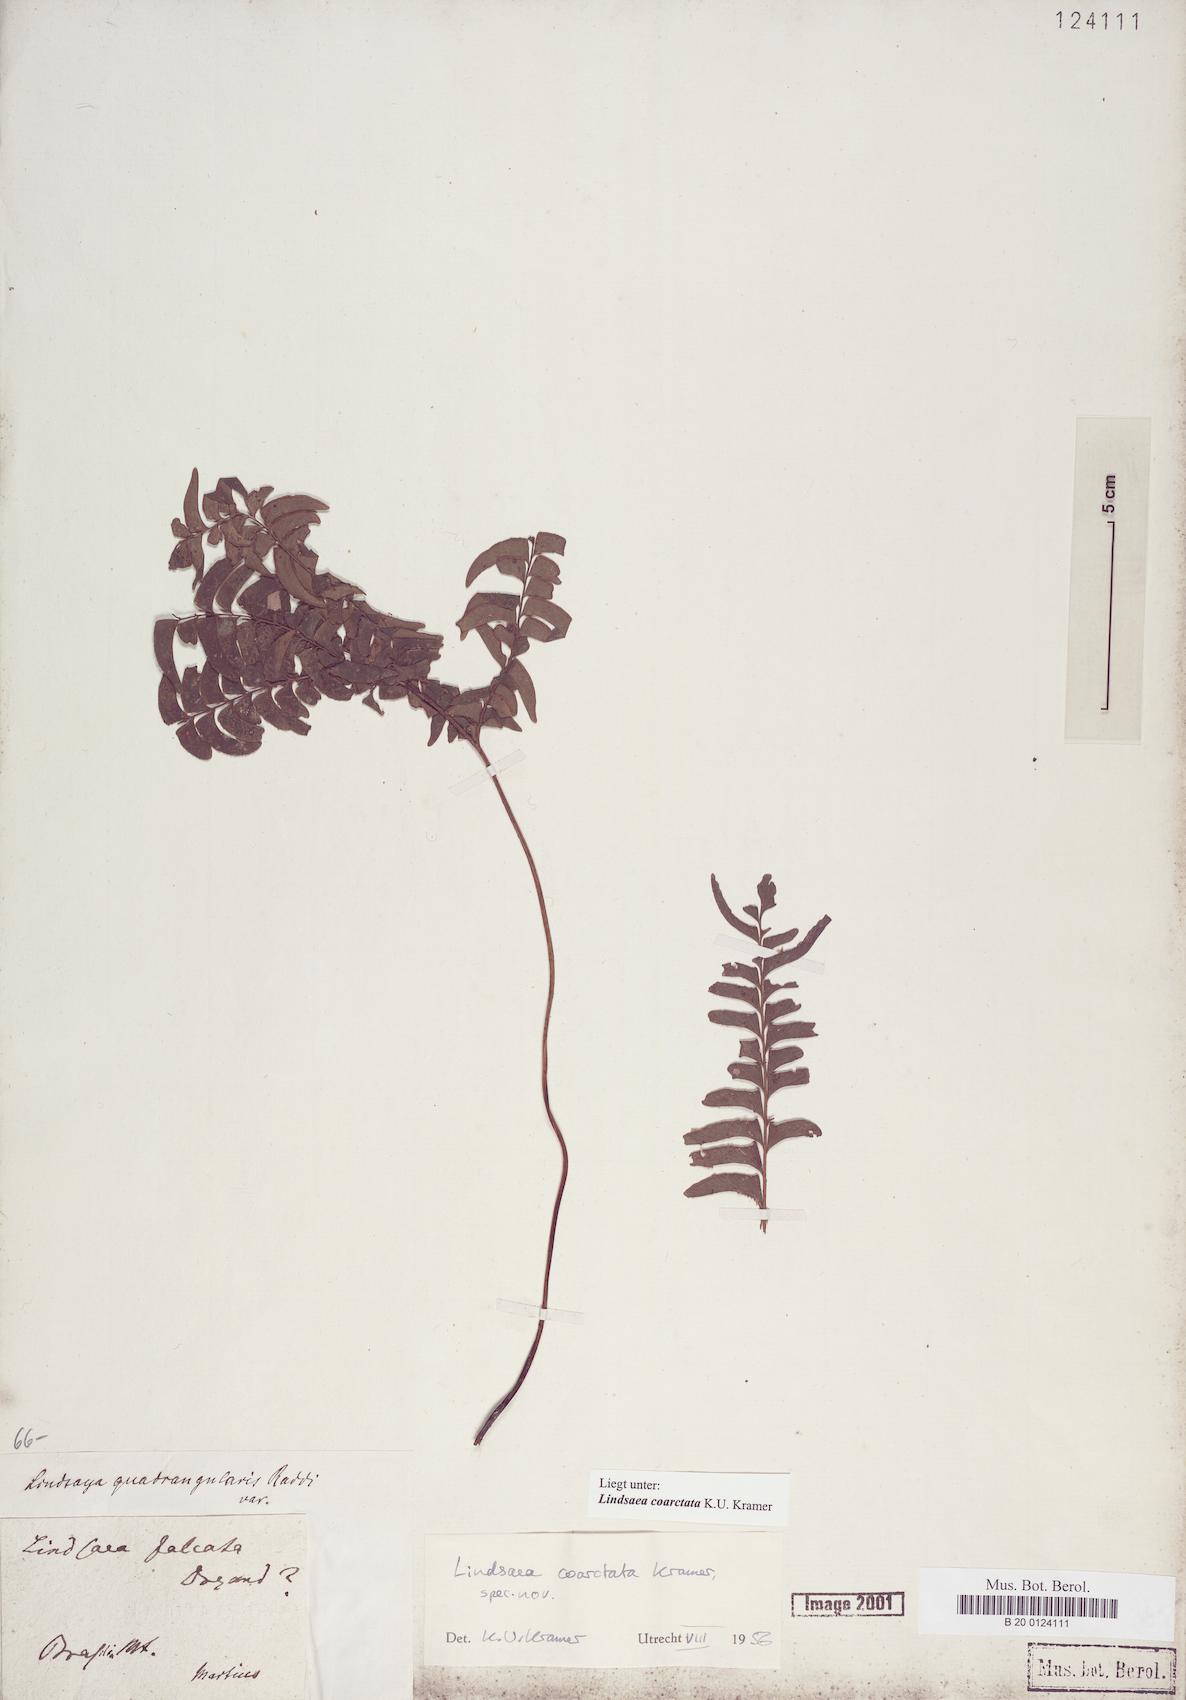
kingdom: Plantae
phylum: Tracheophyta
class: Polypodiopsida
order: Polypodiales
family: Lindsaeaceae
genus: Lindsaea
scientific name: Lindsaea coarctata
